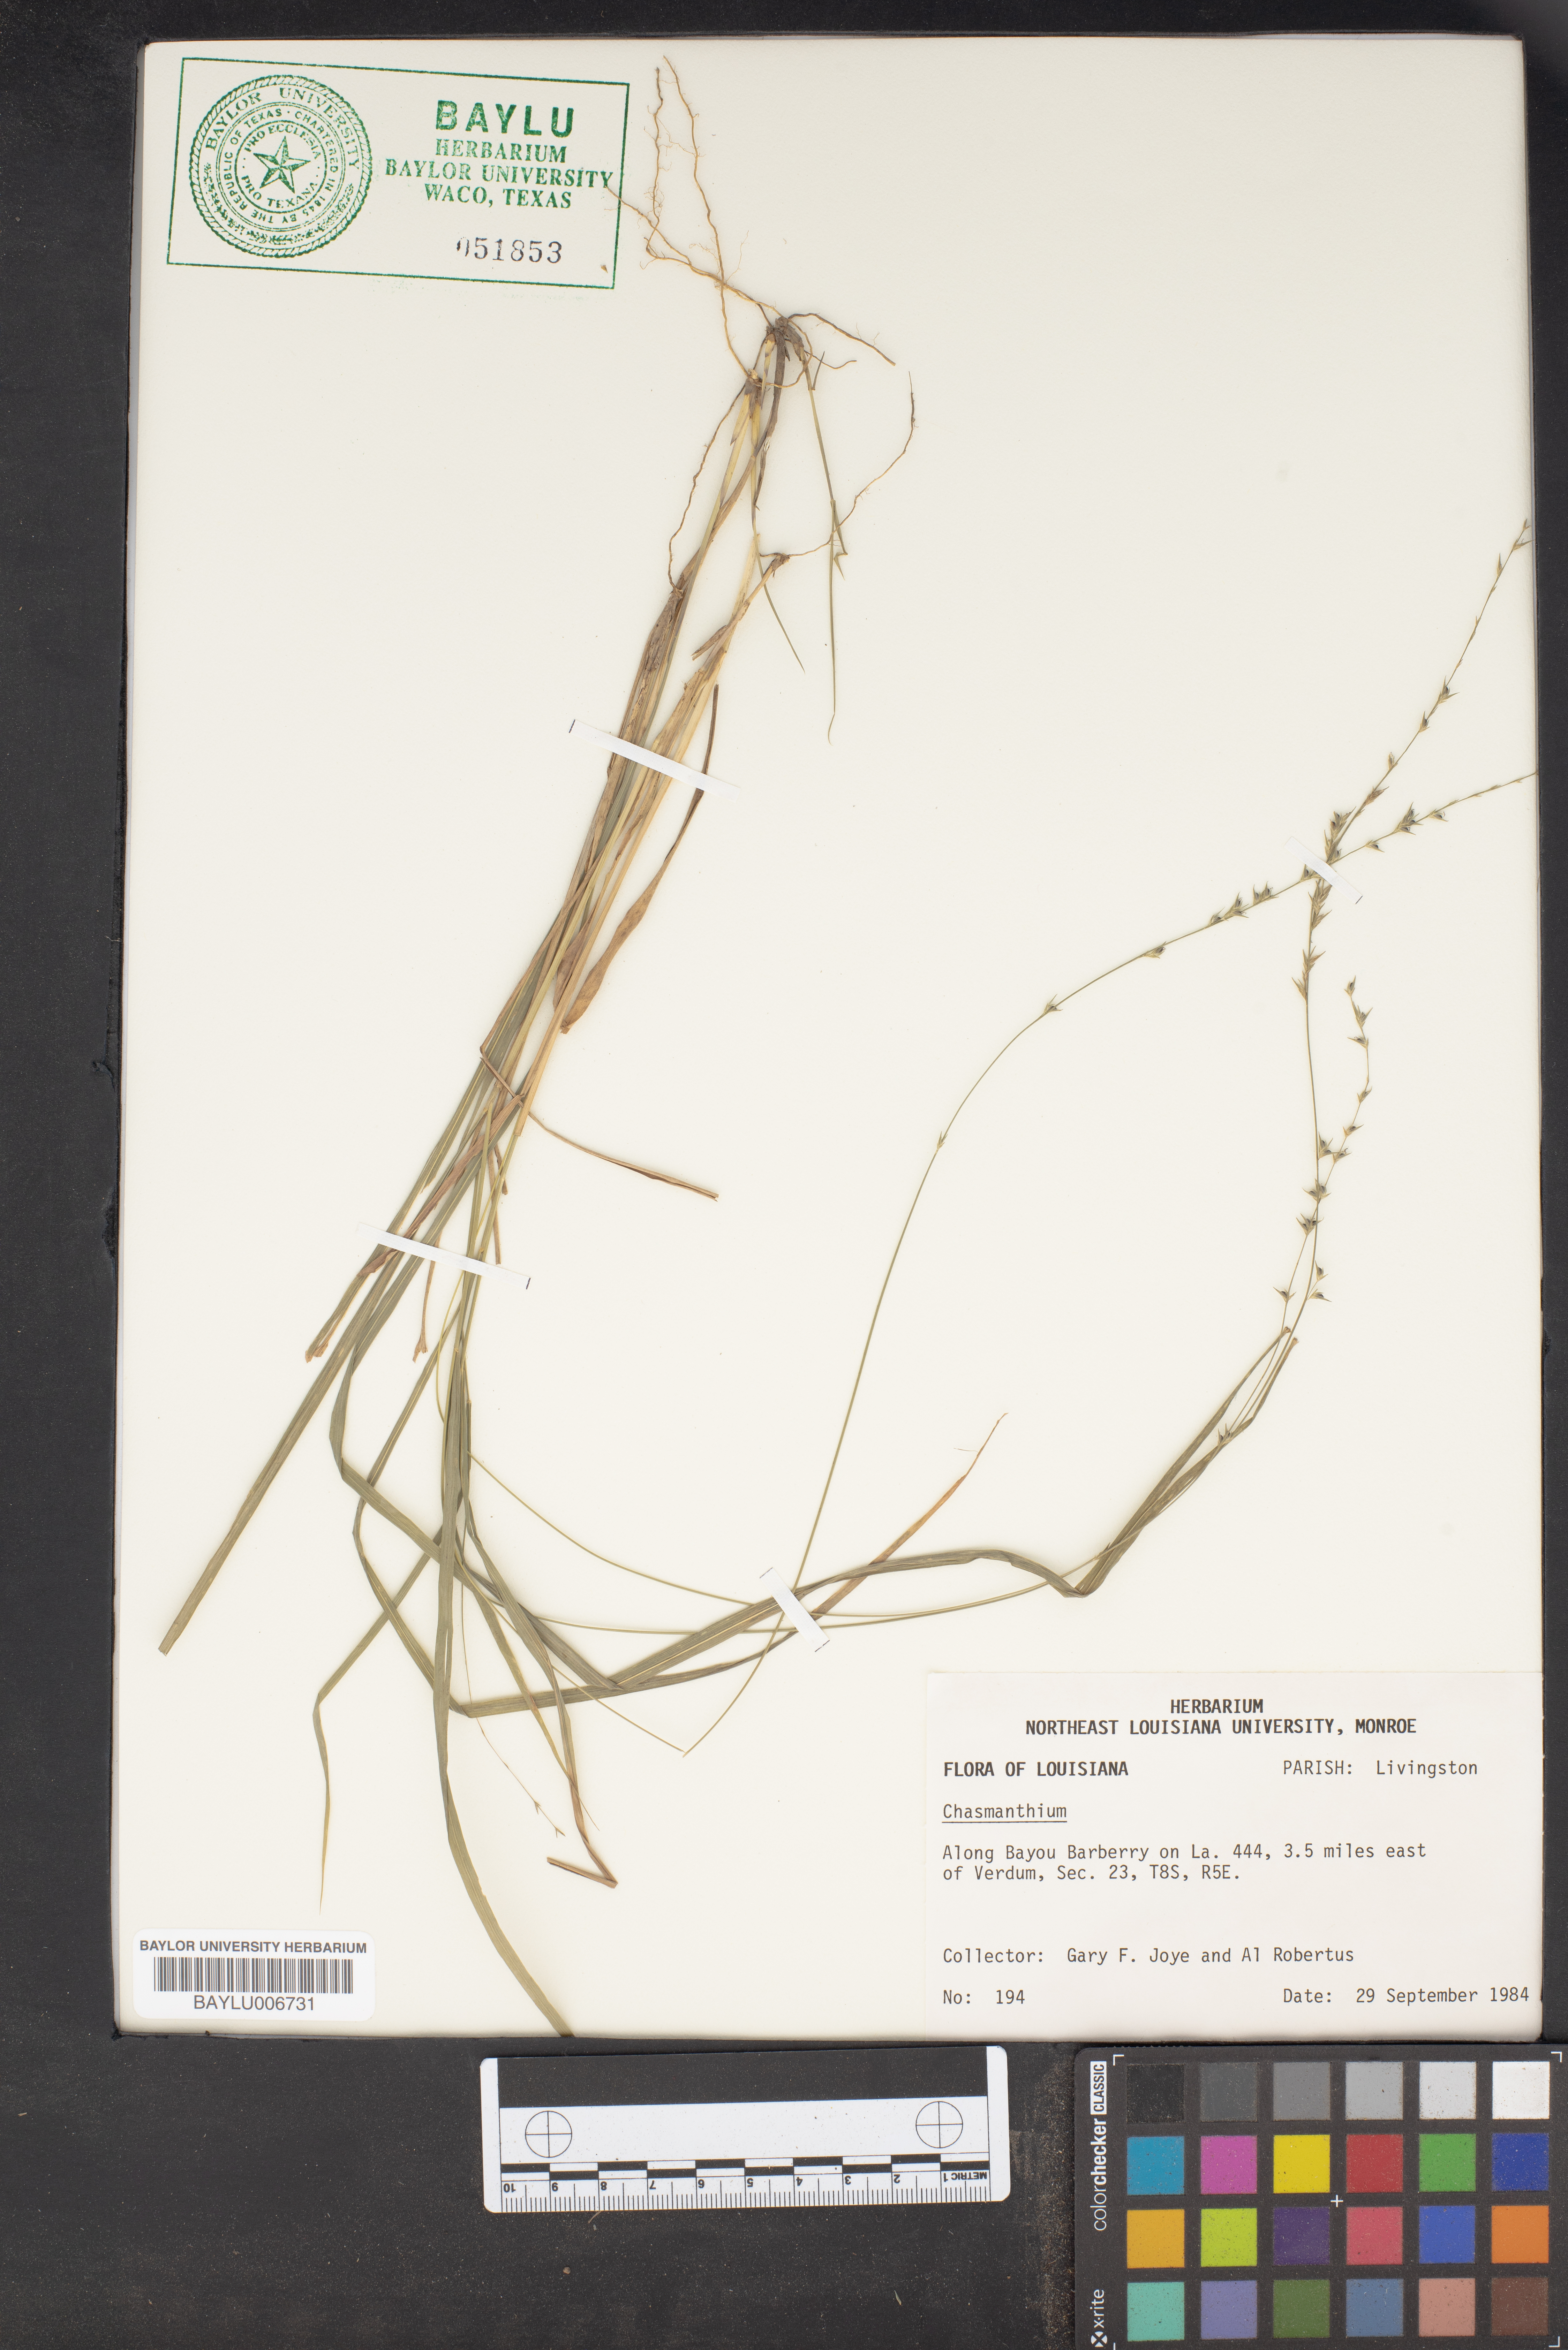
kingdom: Plantae
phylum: Tracheophyta
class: Liliopsida
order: Poales
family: Poaceae
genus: Chasmanthium
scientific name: Chasmanthium
